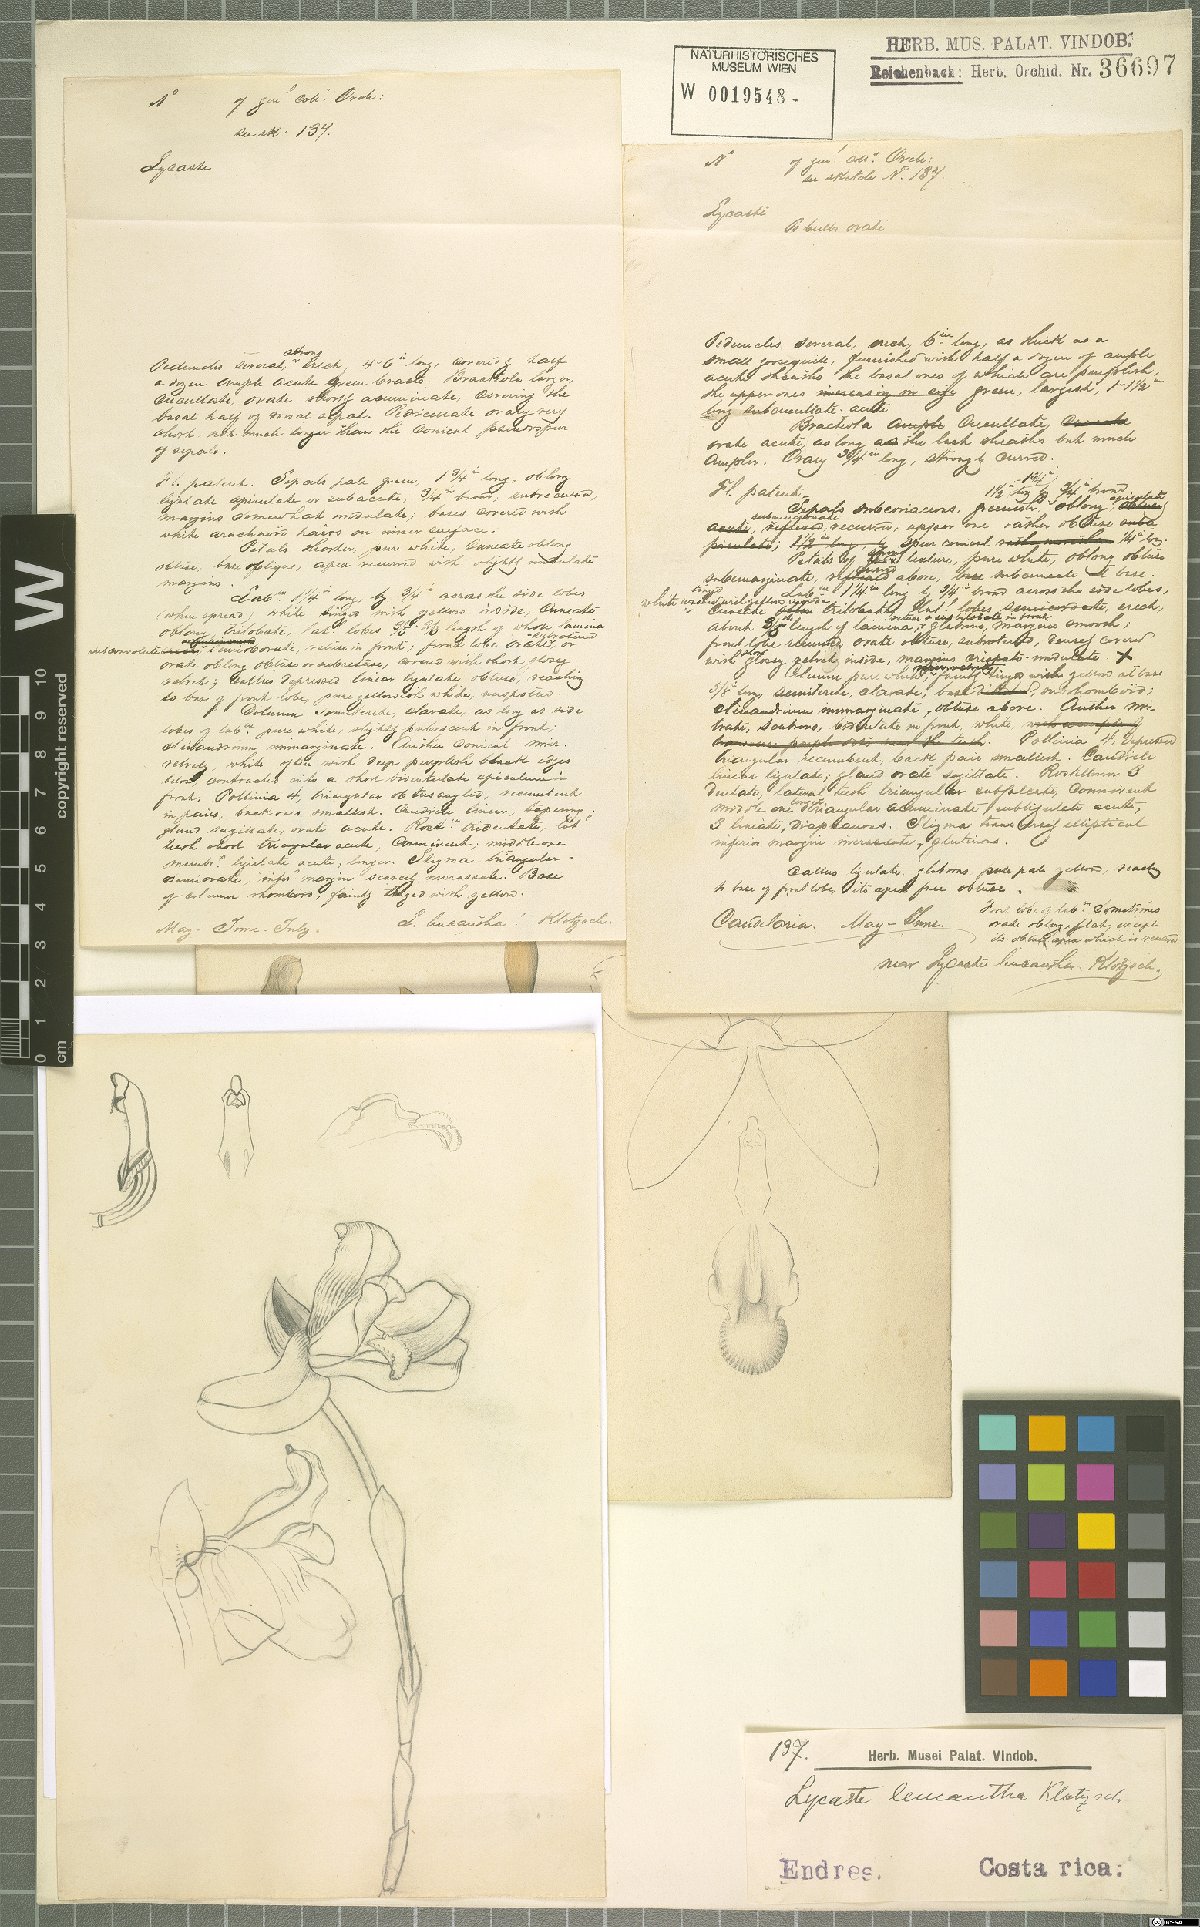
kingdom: Plantae
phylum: Tracheophyta
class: Liliopsida
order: Asparagales
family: Orchidaceae
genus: Lycaste
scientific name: Lycaste leucantha
